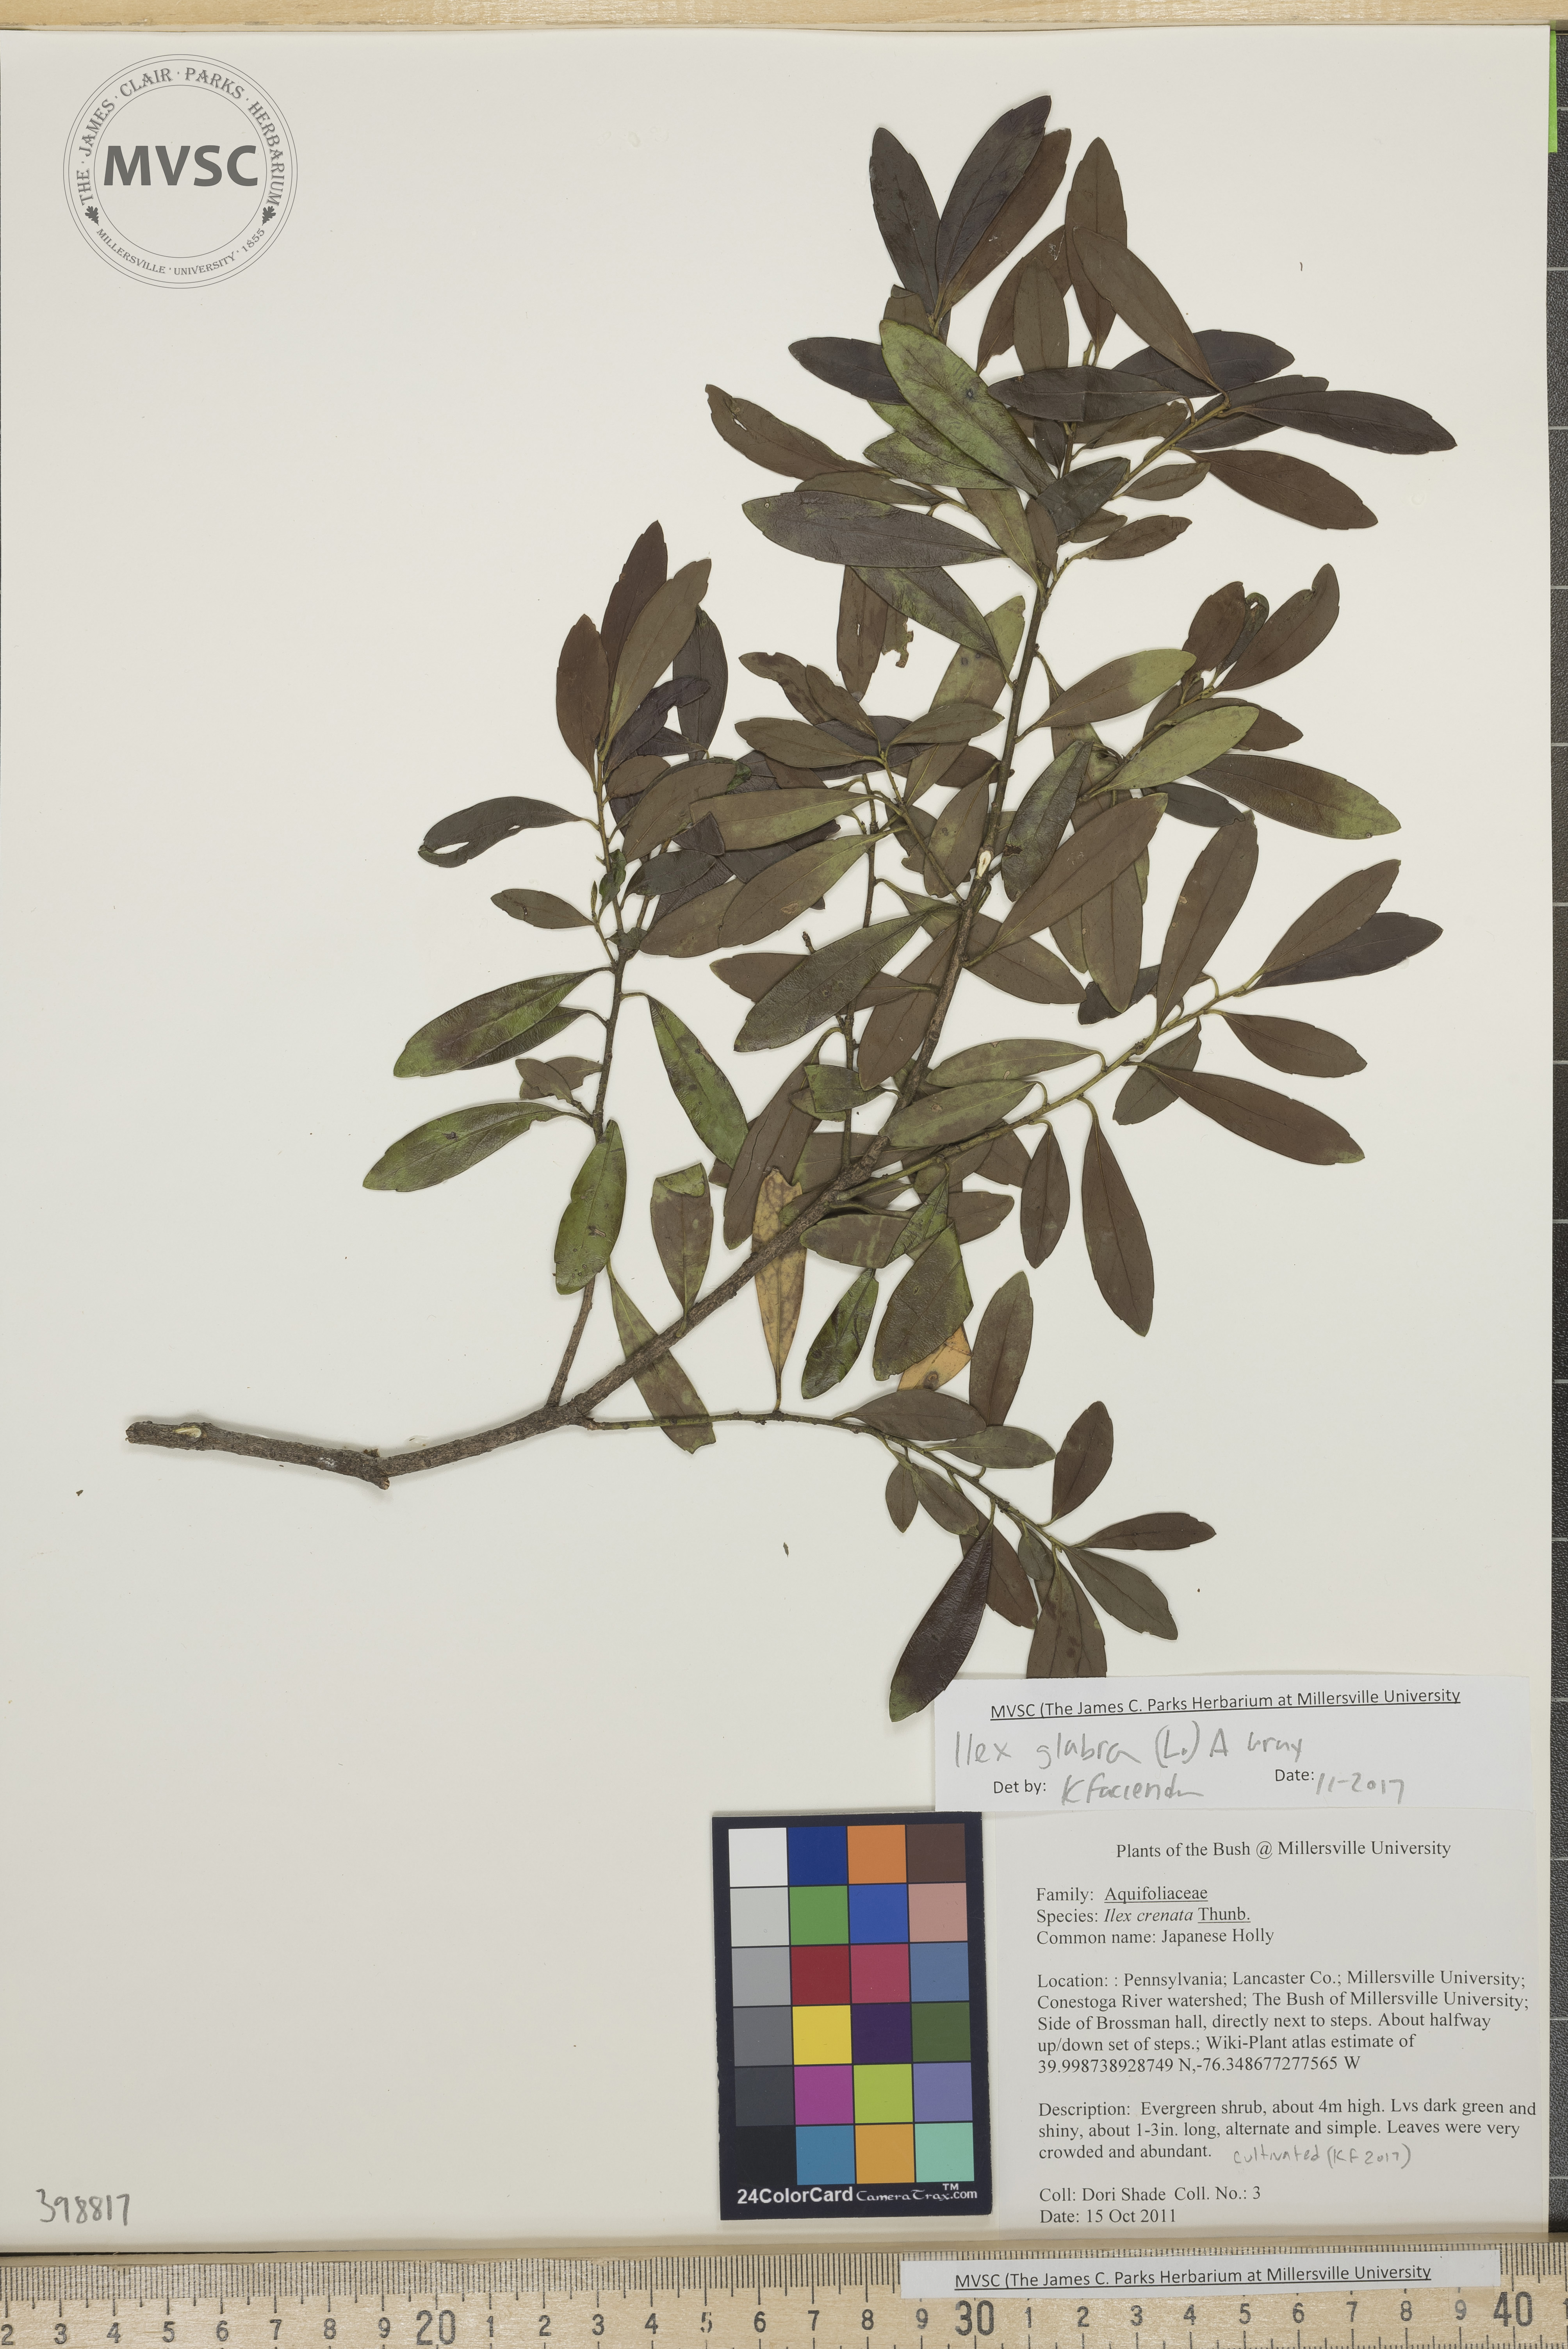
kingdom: Plantae
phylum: Tracheophyta
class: Magnoliopsida
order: Aquifoliales
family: Aquifoliaceae
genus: Ilex
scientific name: Ilex glabra
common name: Inkberry
